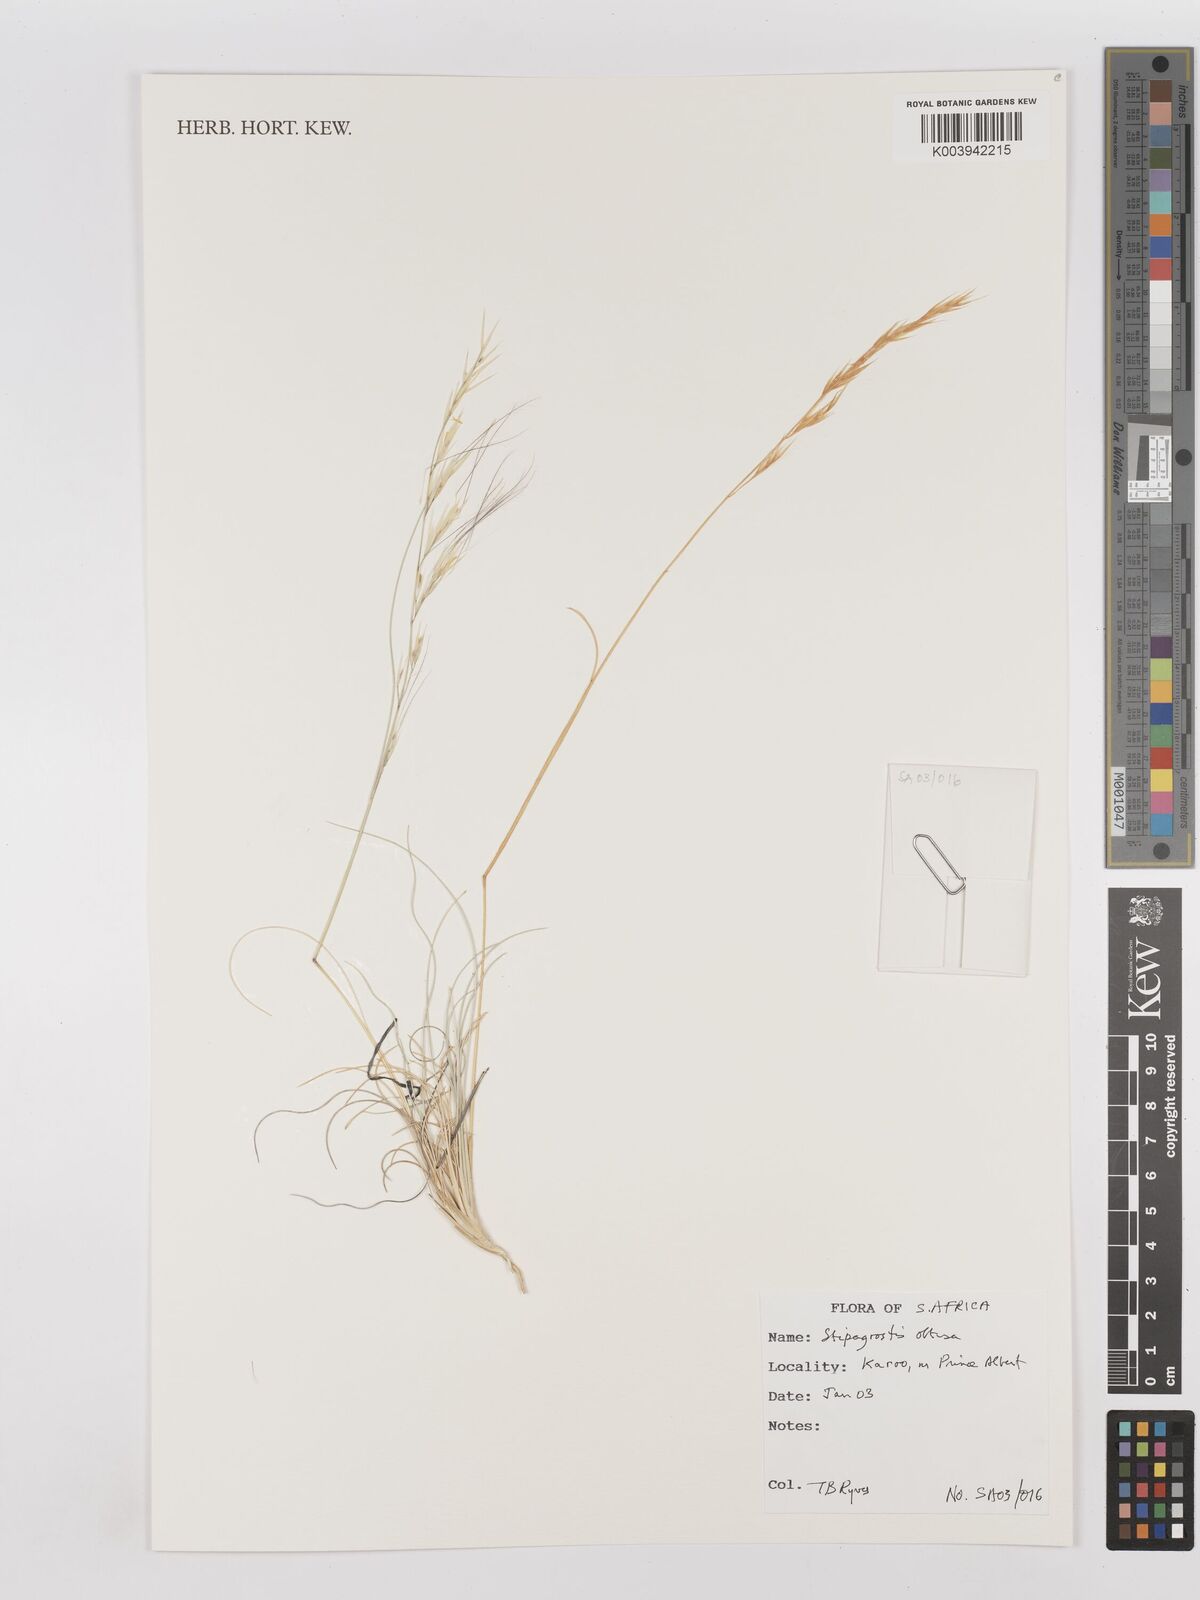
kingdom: Plantae
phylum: Tracheophyta
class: Liliopsida
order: Poales
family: Poaceae
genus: Stipagrostis
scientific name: Stipagrostis obtusa
